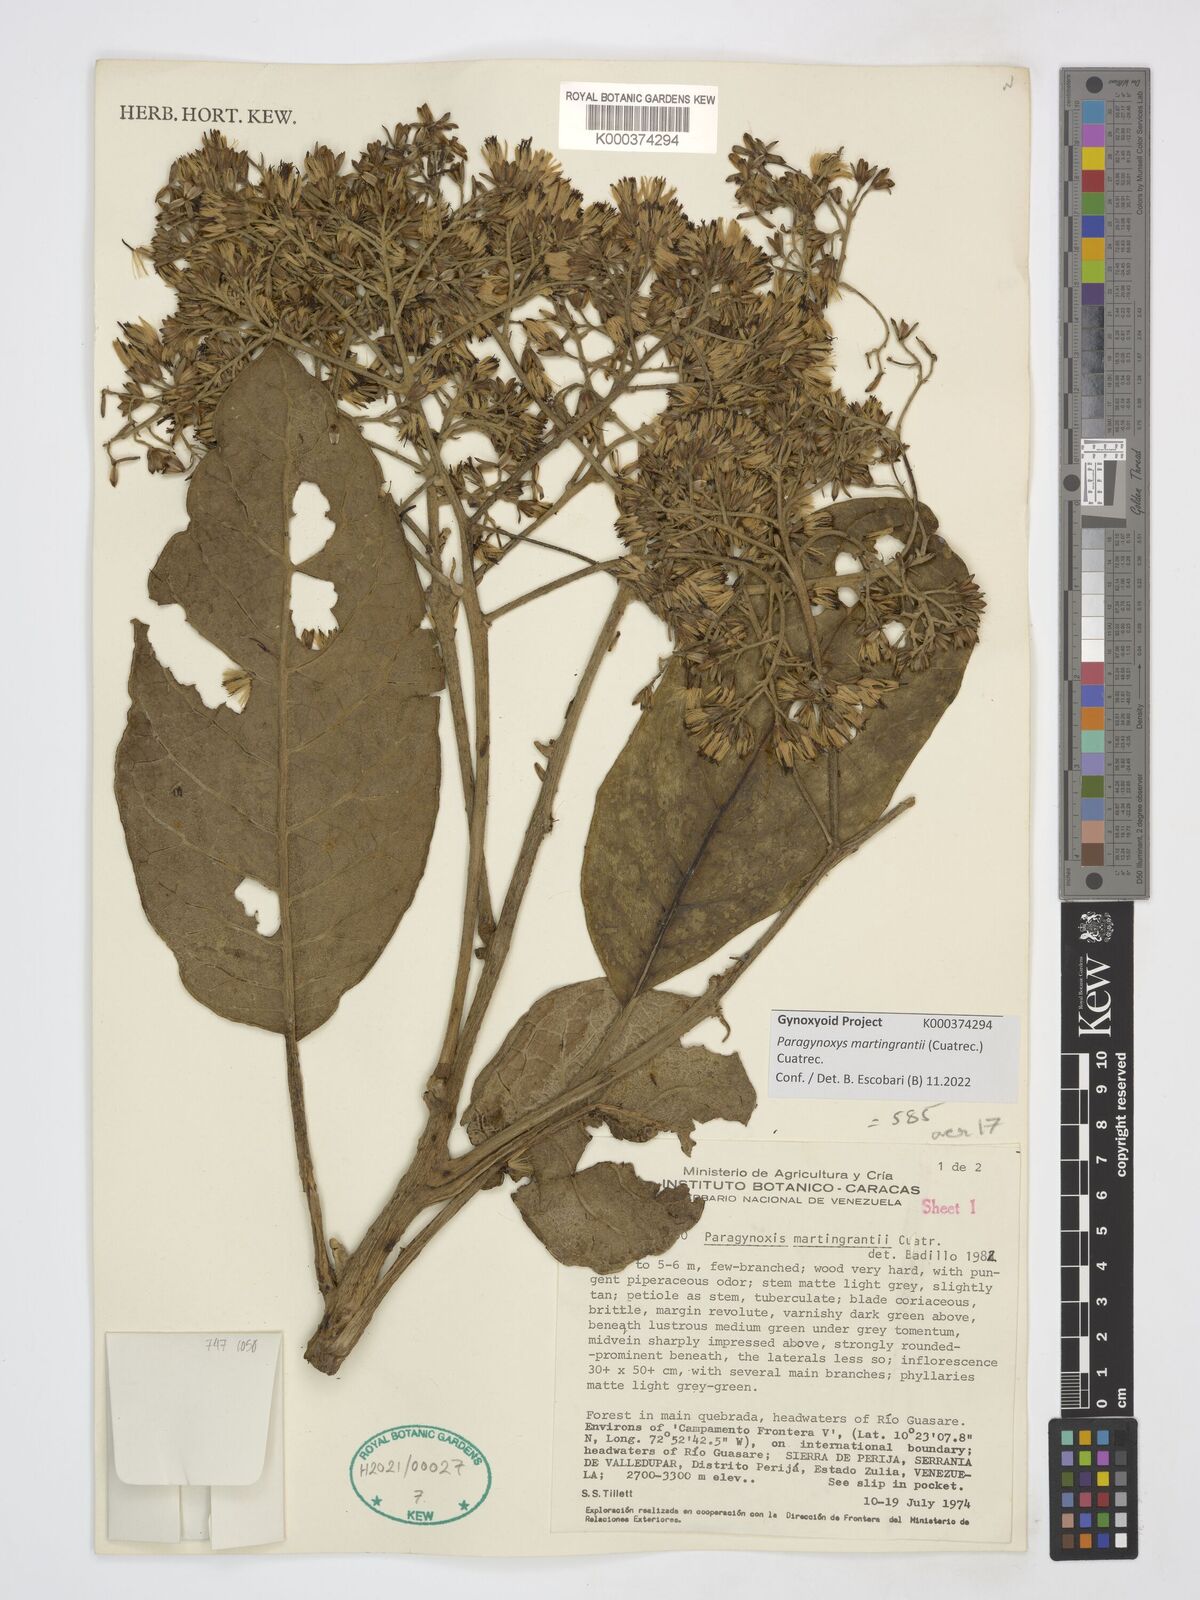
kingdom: Plantae
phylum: Tracheophyta
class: Magnoliopsida
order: Asterales
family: Asteraceae
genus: Paragynoxys
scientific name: Paragynoxys martingrantii
